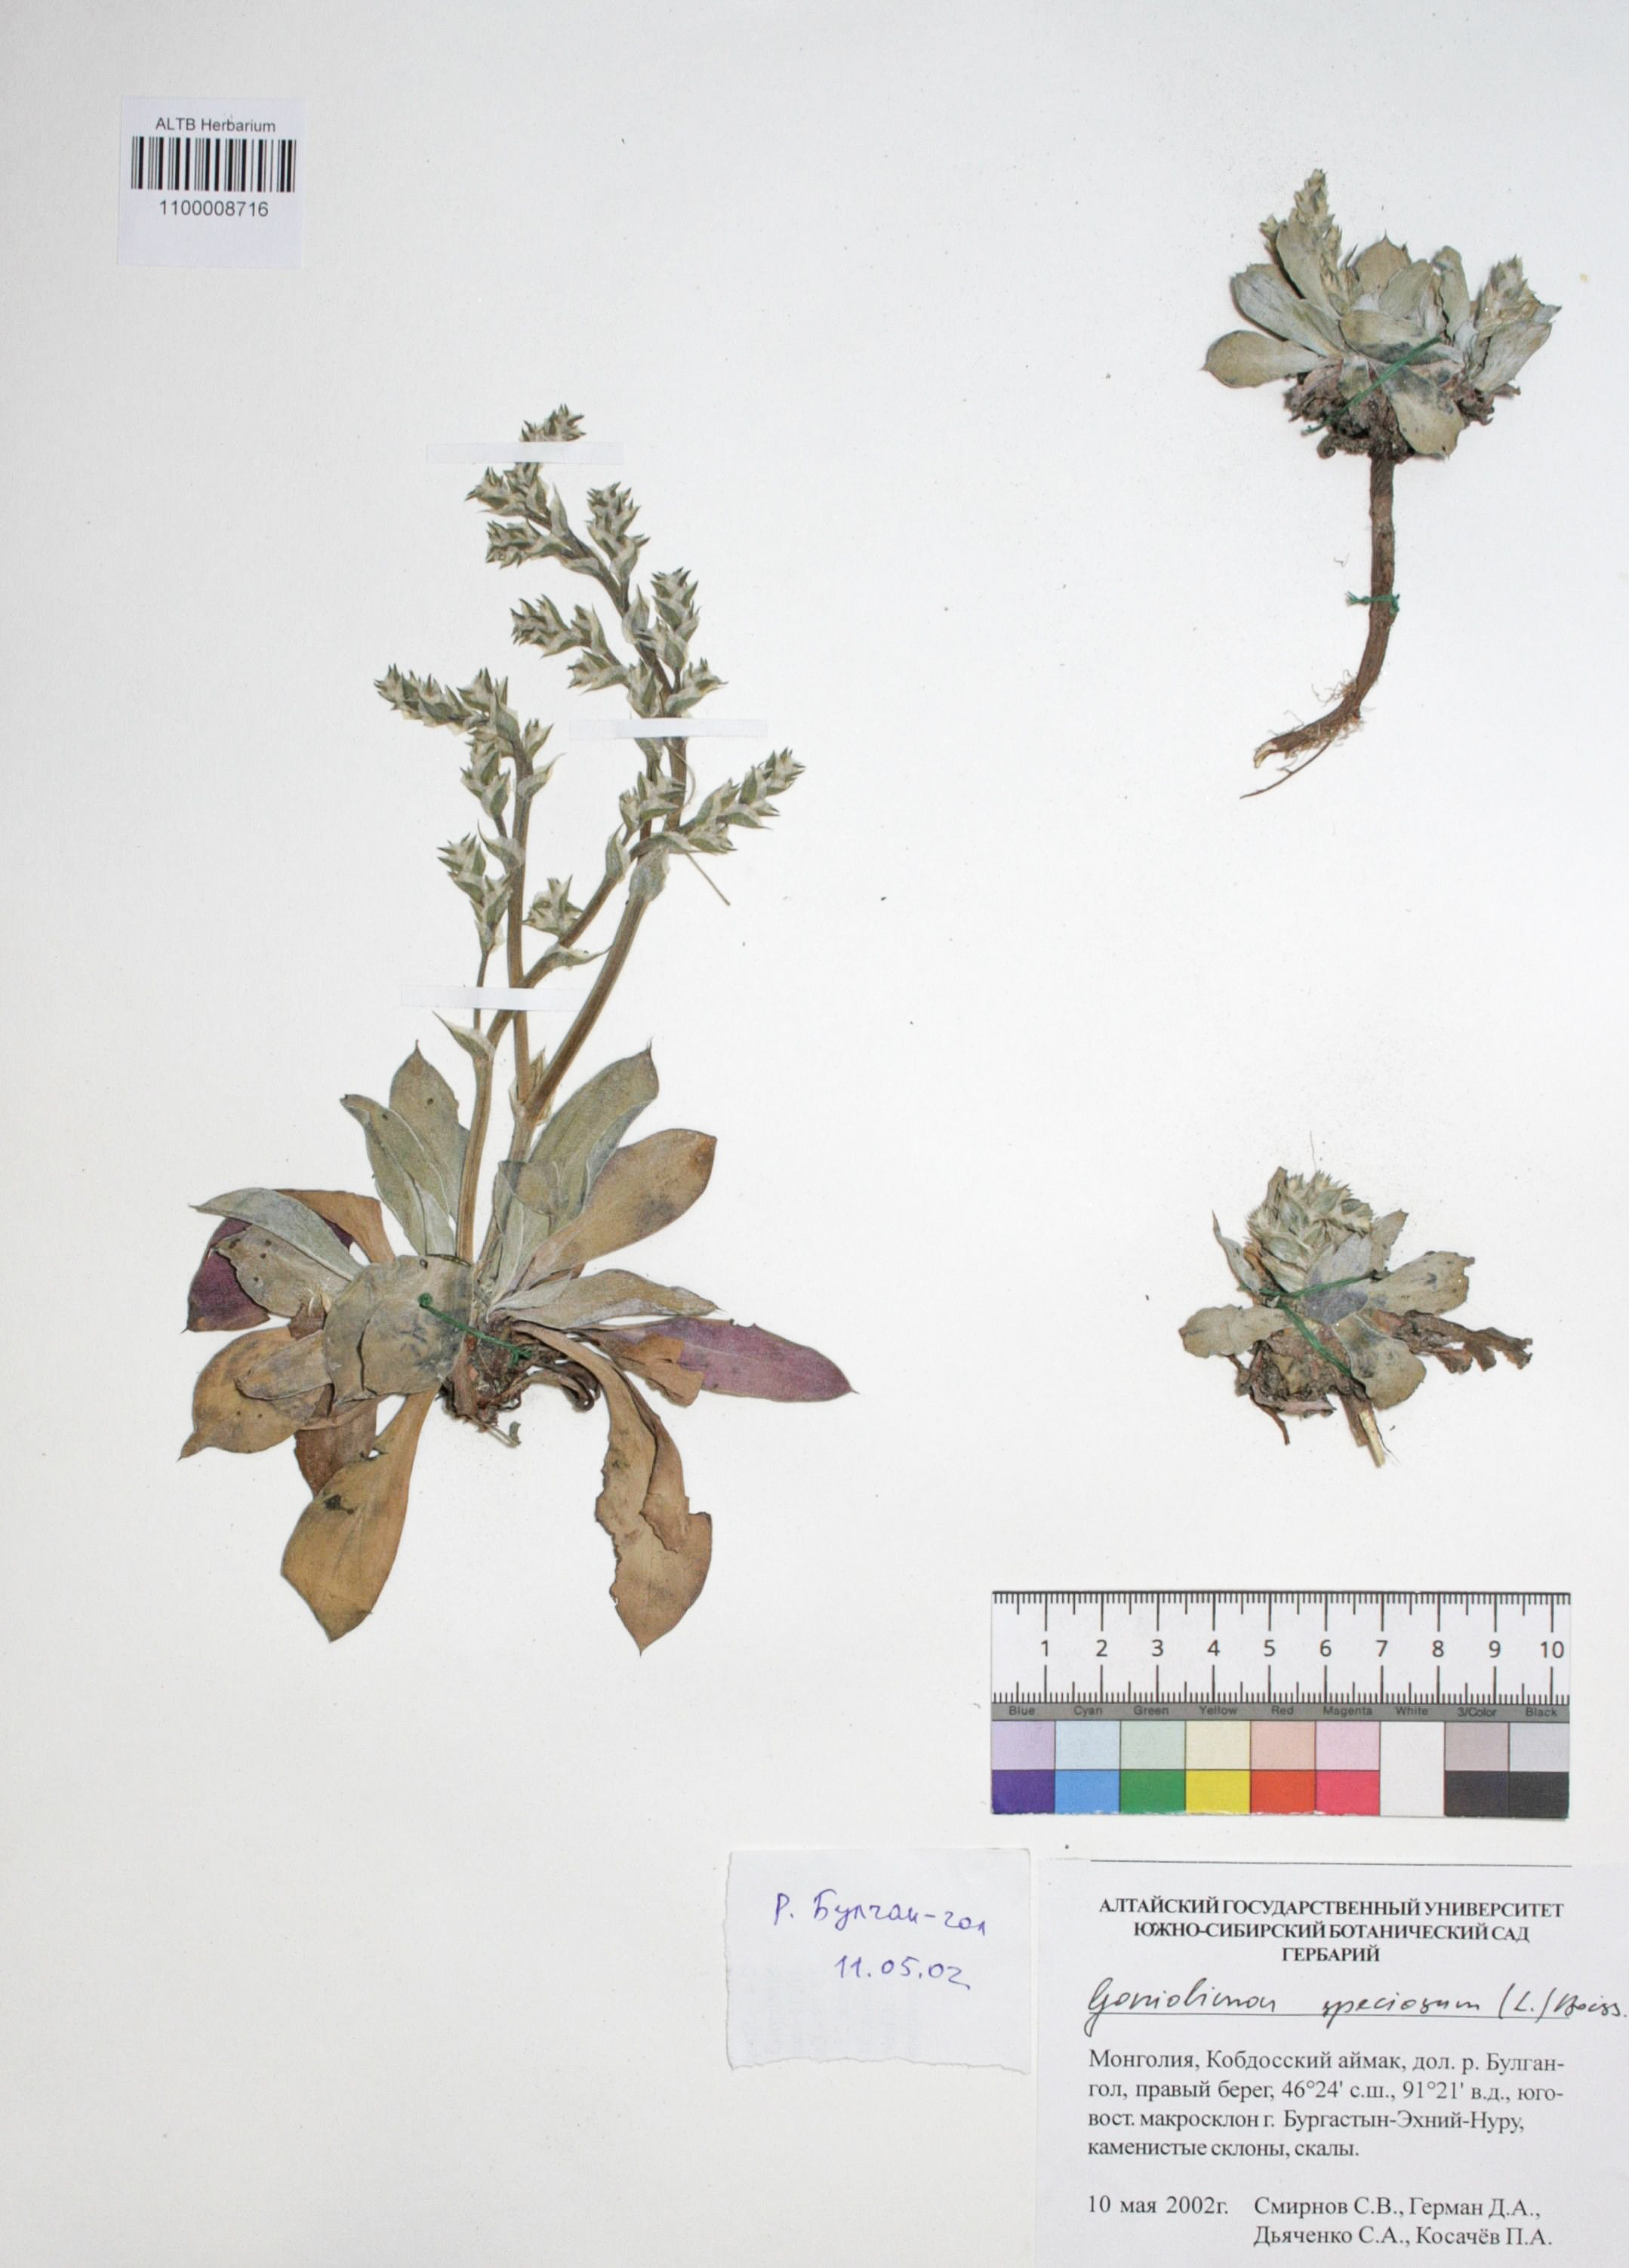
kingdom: Plantae
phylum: Tracheophyta
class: Magnoliopsida
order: Caryophyllales
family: Plumbaginaceae
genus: Goniolimon
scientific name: Goniolimon speciosum
